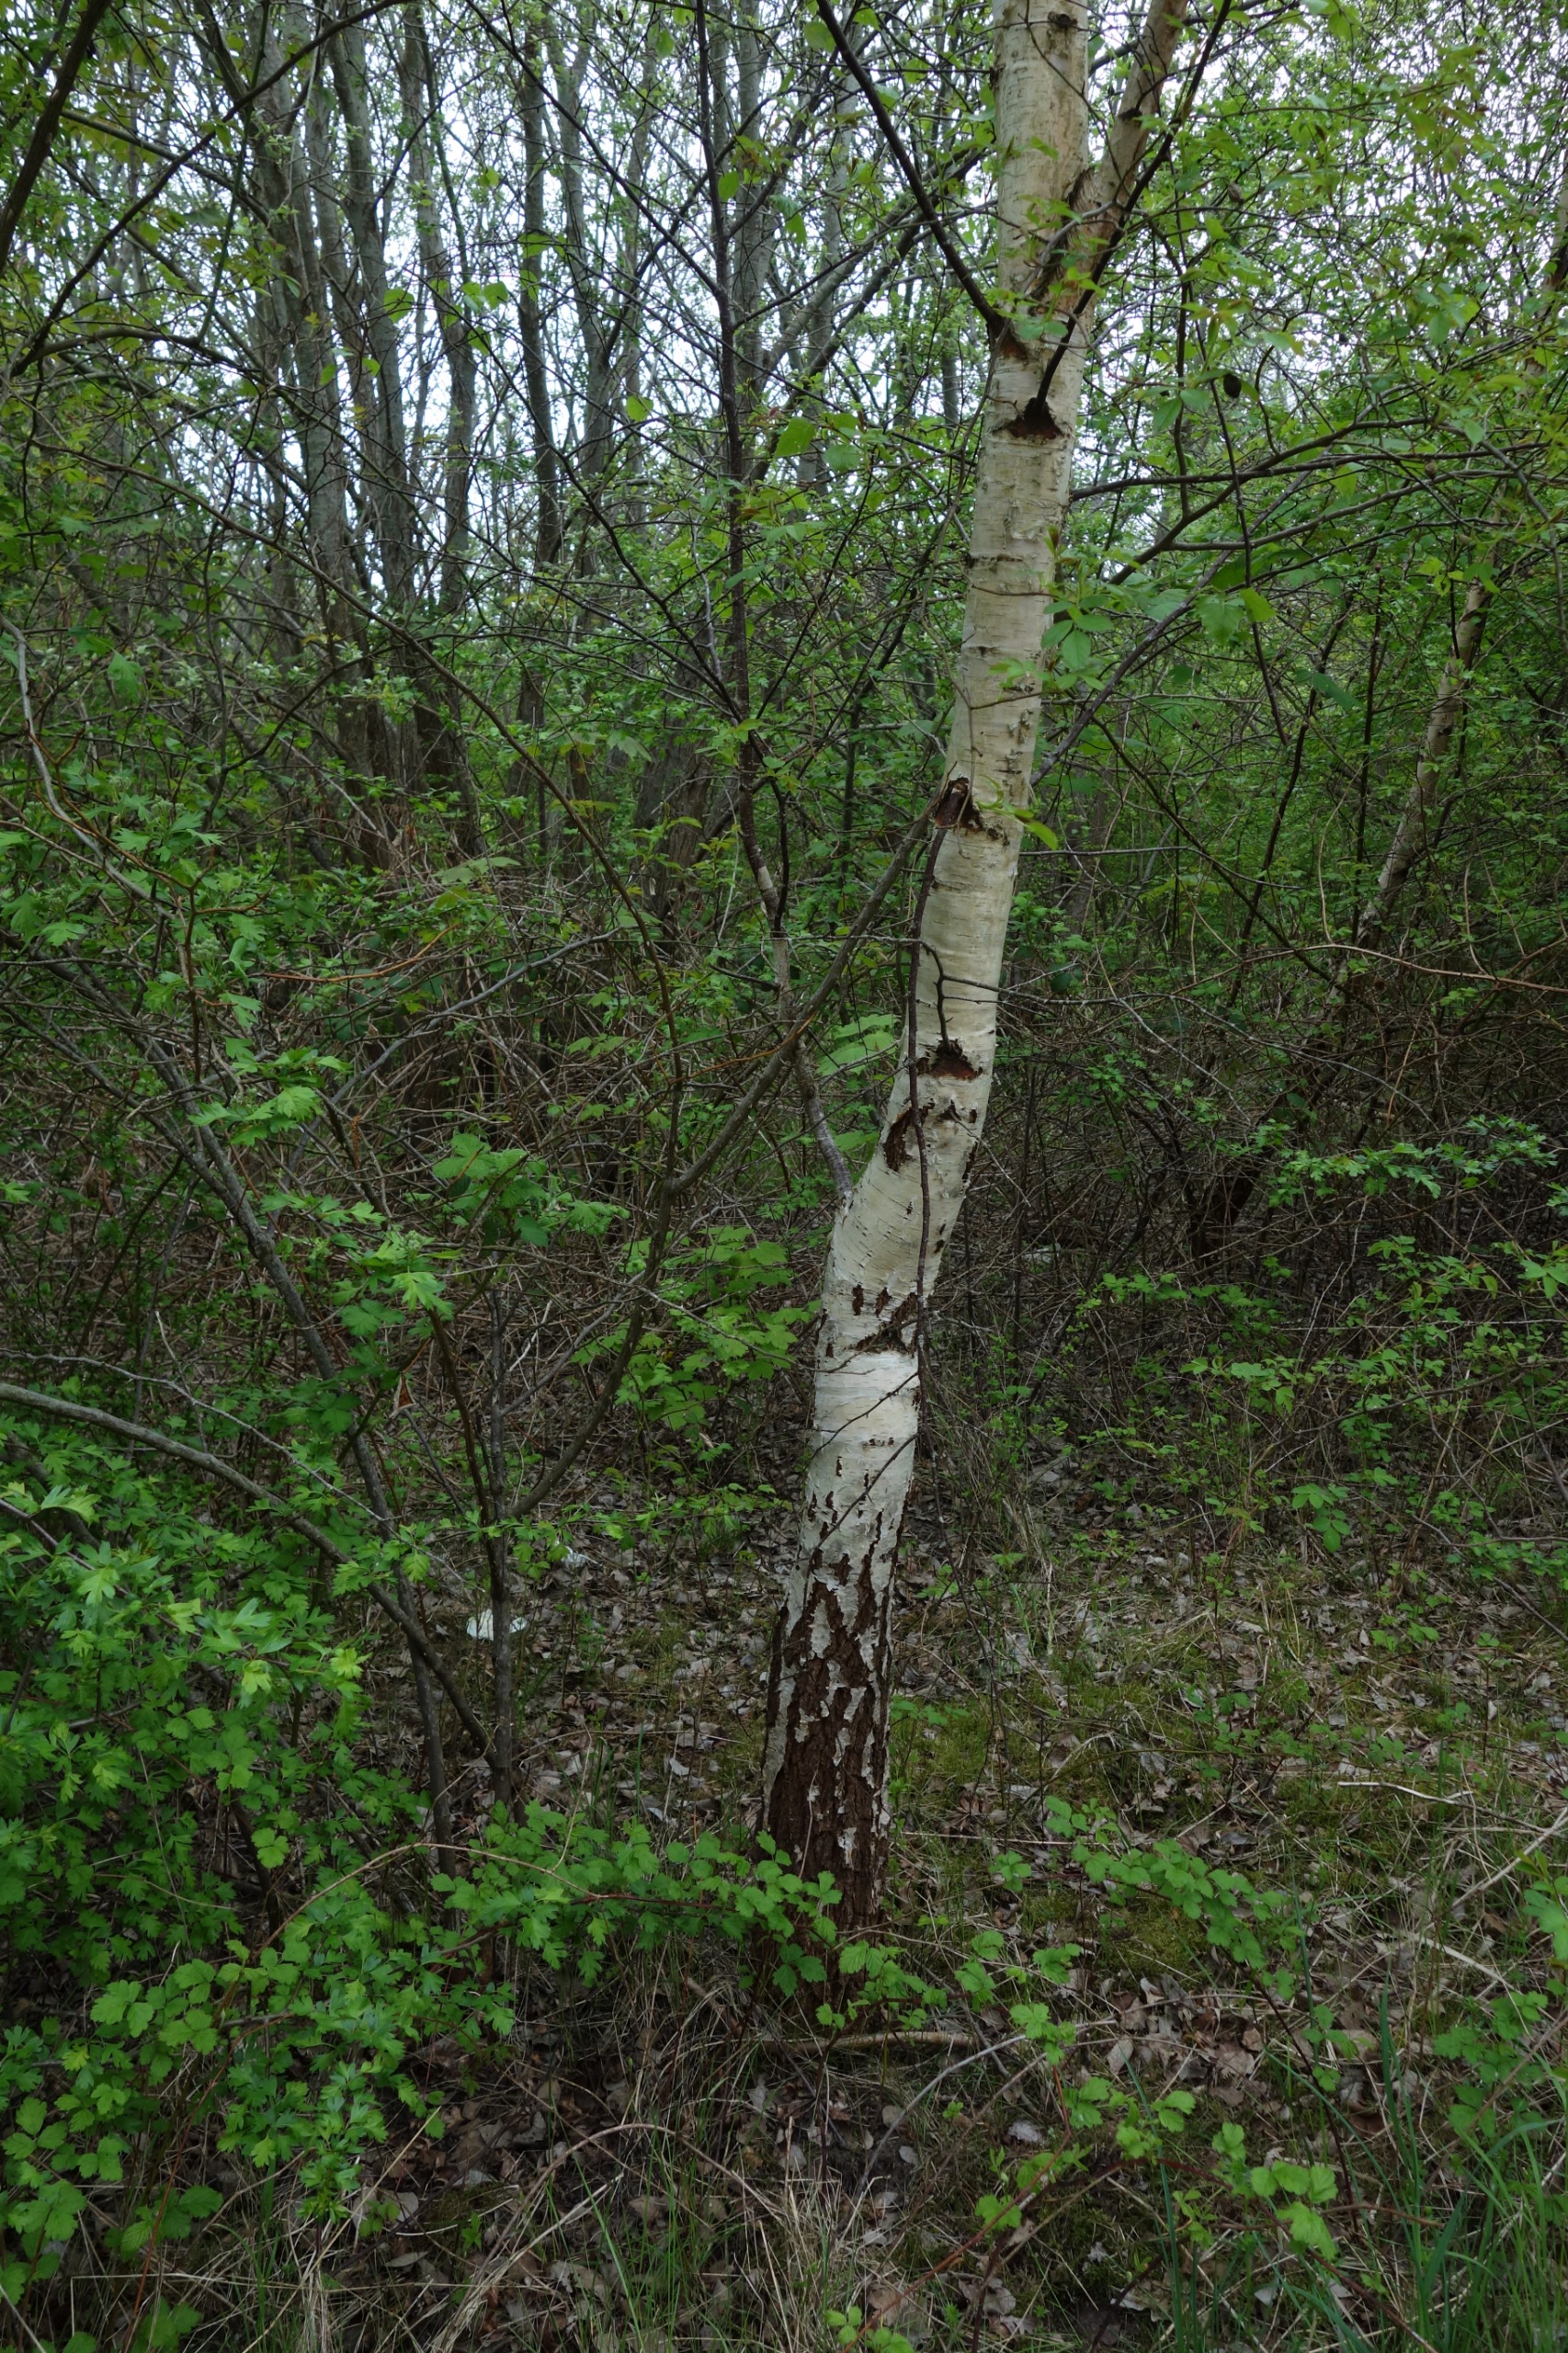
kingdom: Plantae
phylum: Tracheophyta
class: Magnoliopsida
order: Fagales
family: Betulaceae
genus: Betula
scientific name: Betula pendula
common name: Vorte-birk
